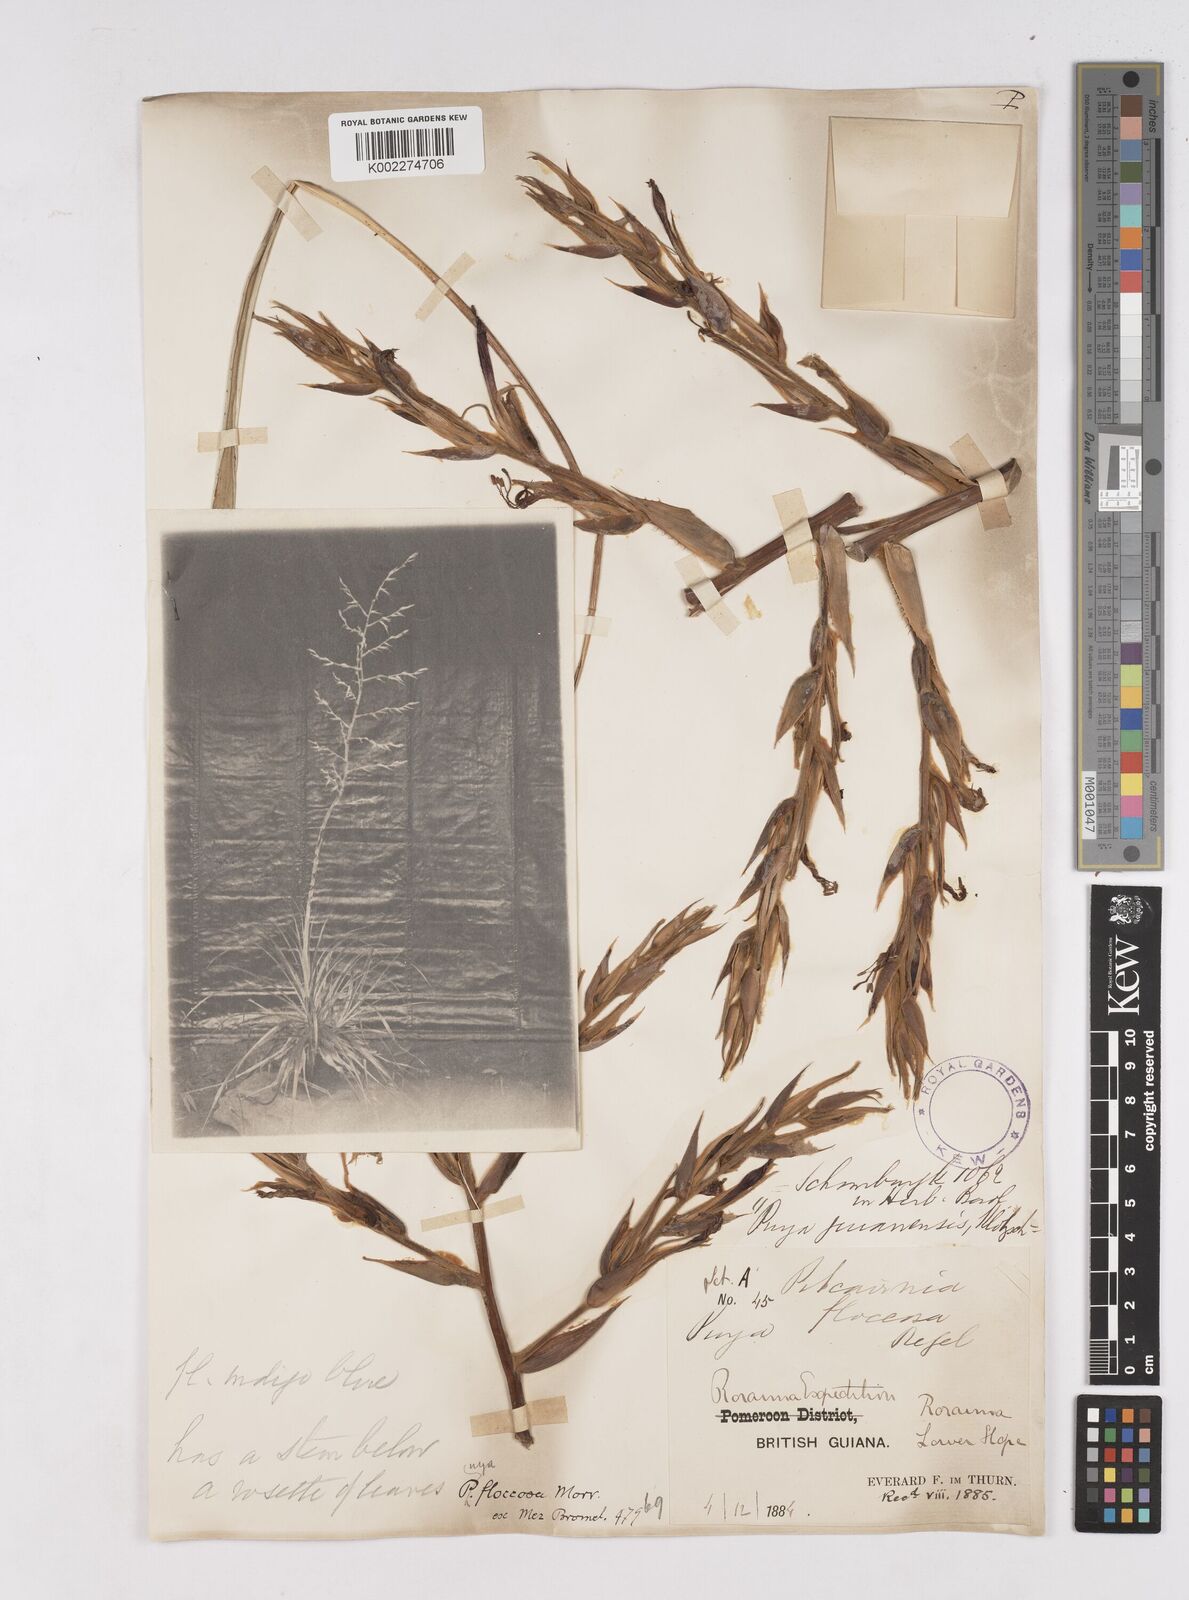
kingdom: Plantae
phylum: Tracheophyta
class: Liliopsida
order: Poales
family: Bromeliaceae
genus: Puya
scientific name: Puya floccosa
